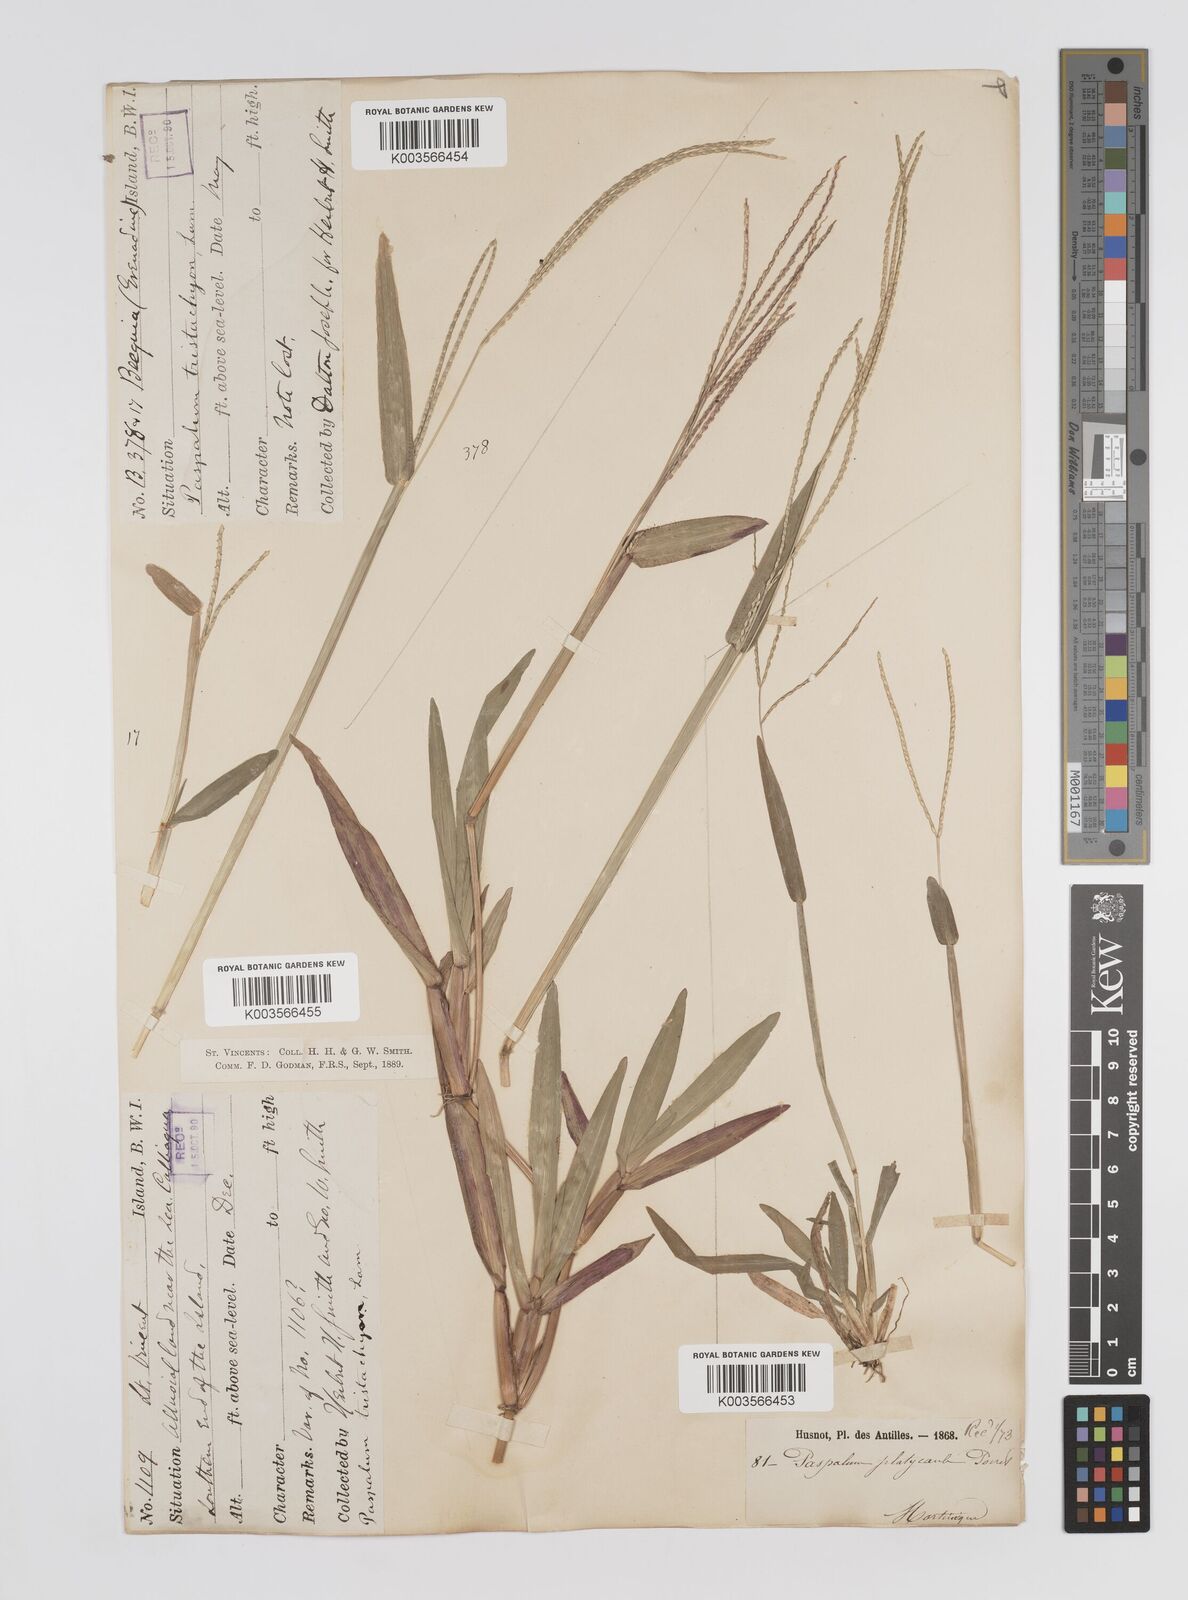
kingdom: Plantae
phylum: Tracheophyta
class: Liliopsida
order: Poales
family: Poaceae
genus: Axonopus
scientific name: Axonopus compressus
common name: American carpet grass
